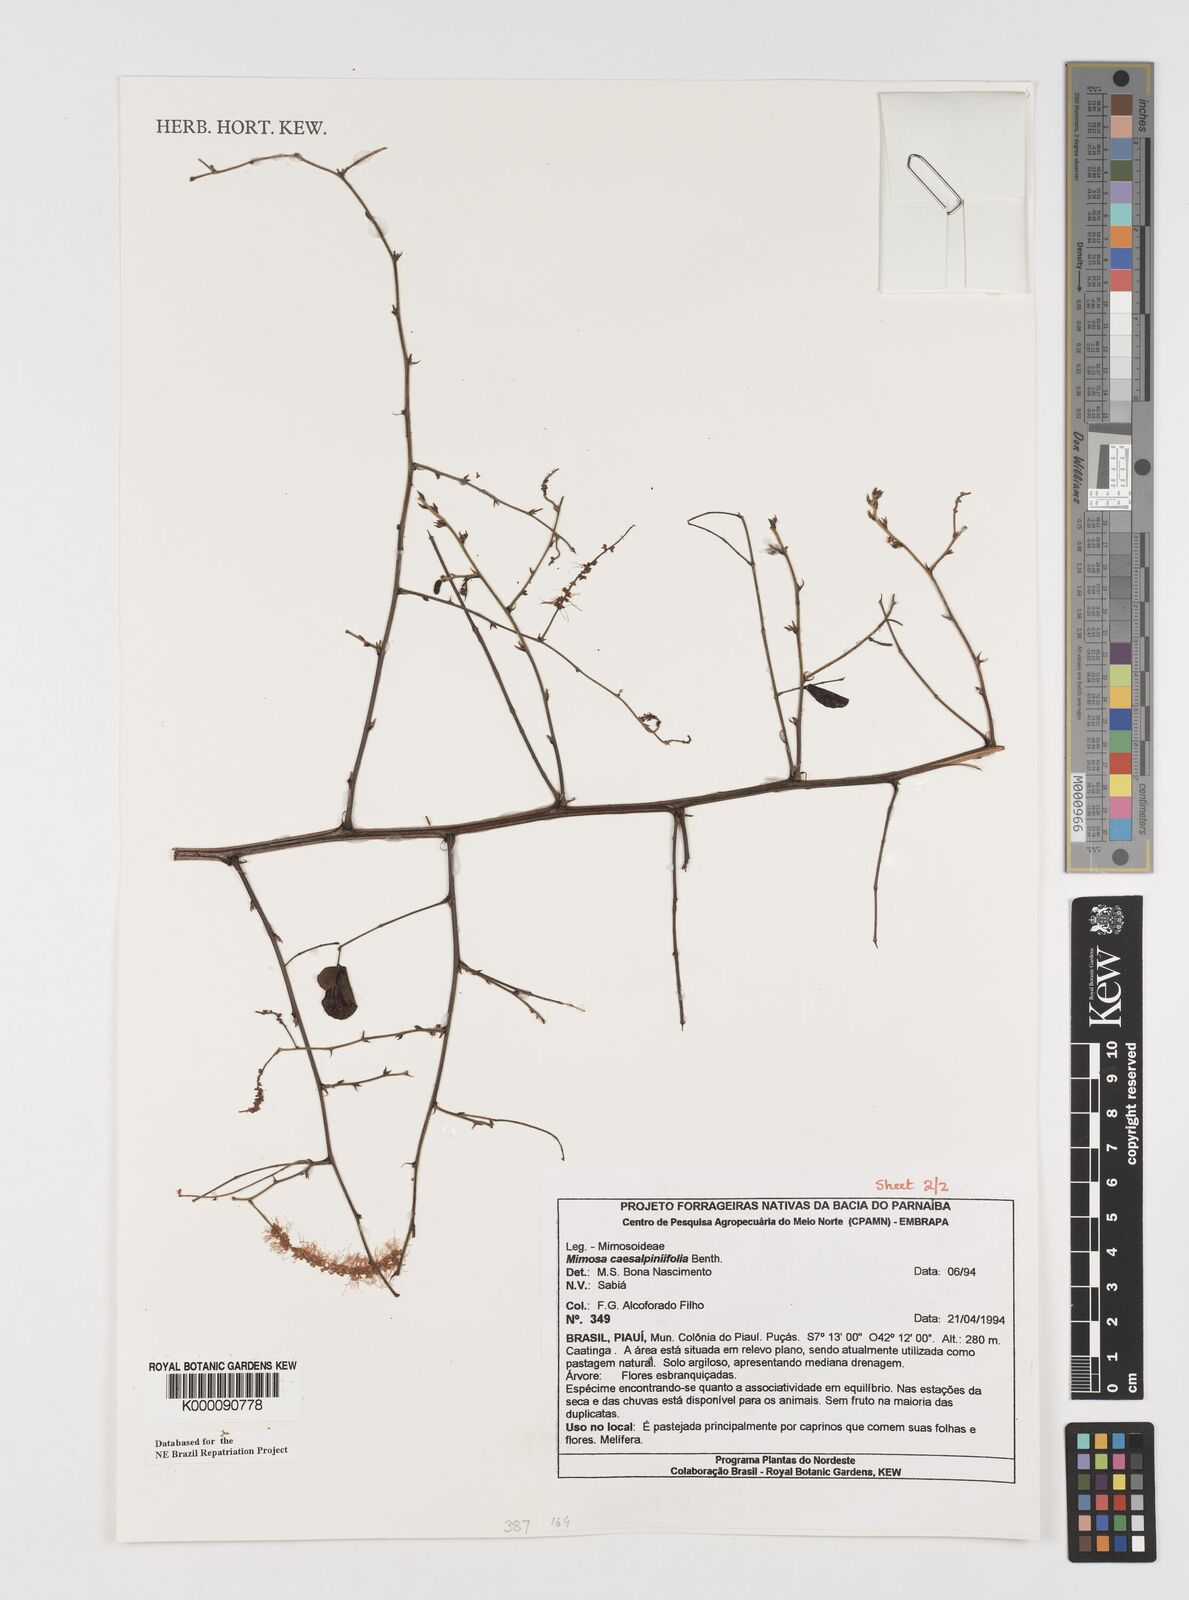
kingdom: Plantae
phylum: Tracheophyta
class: Magnoliopsida
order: Fabales
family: Fabaceae
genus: Mimosa
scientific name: Mimosa caesalpiniifolia
